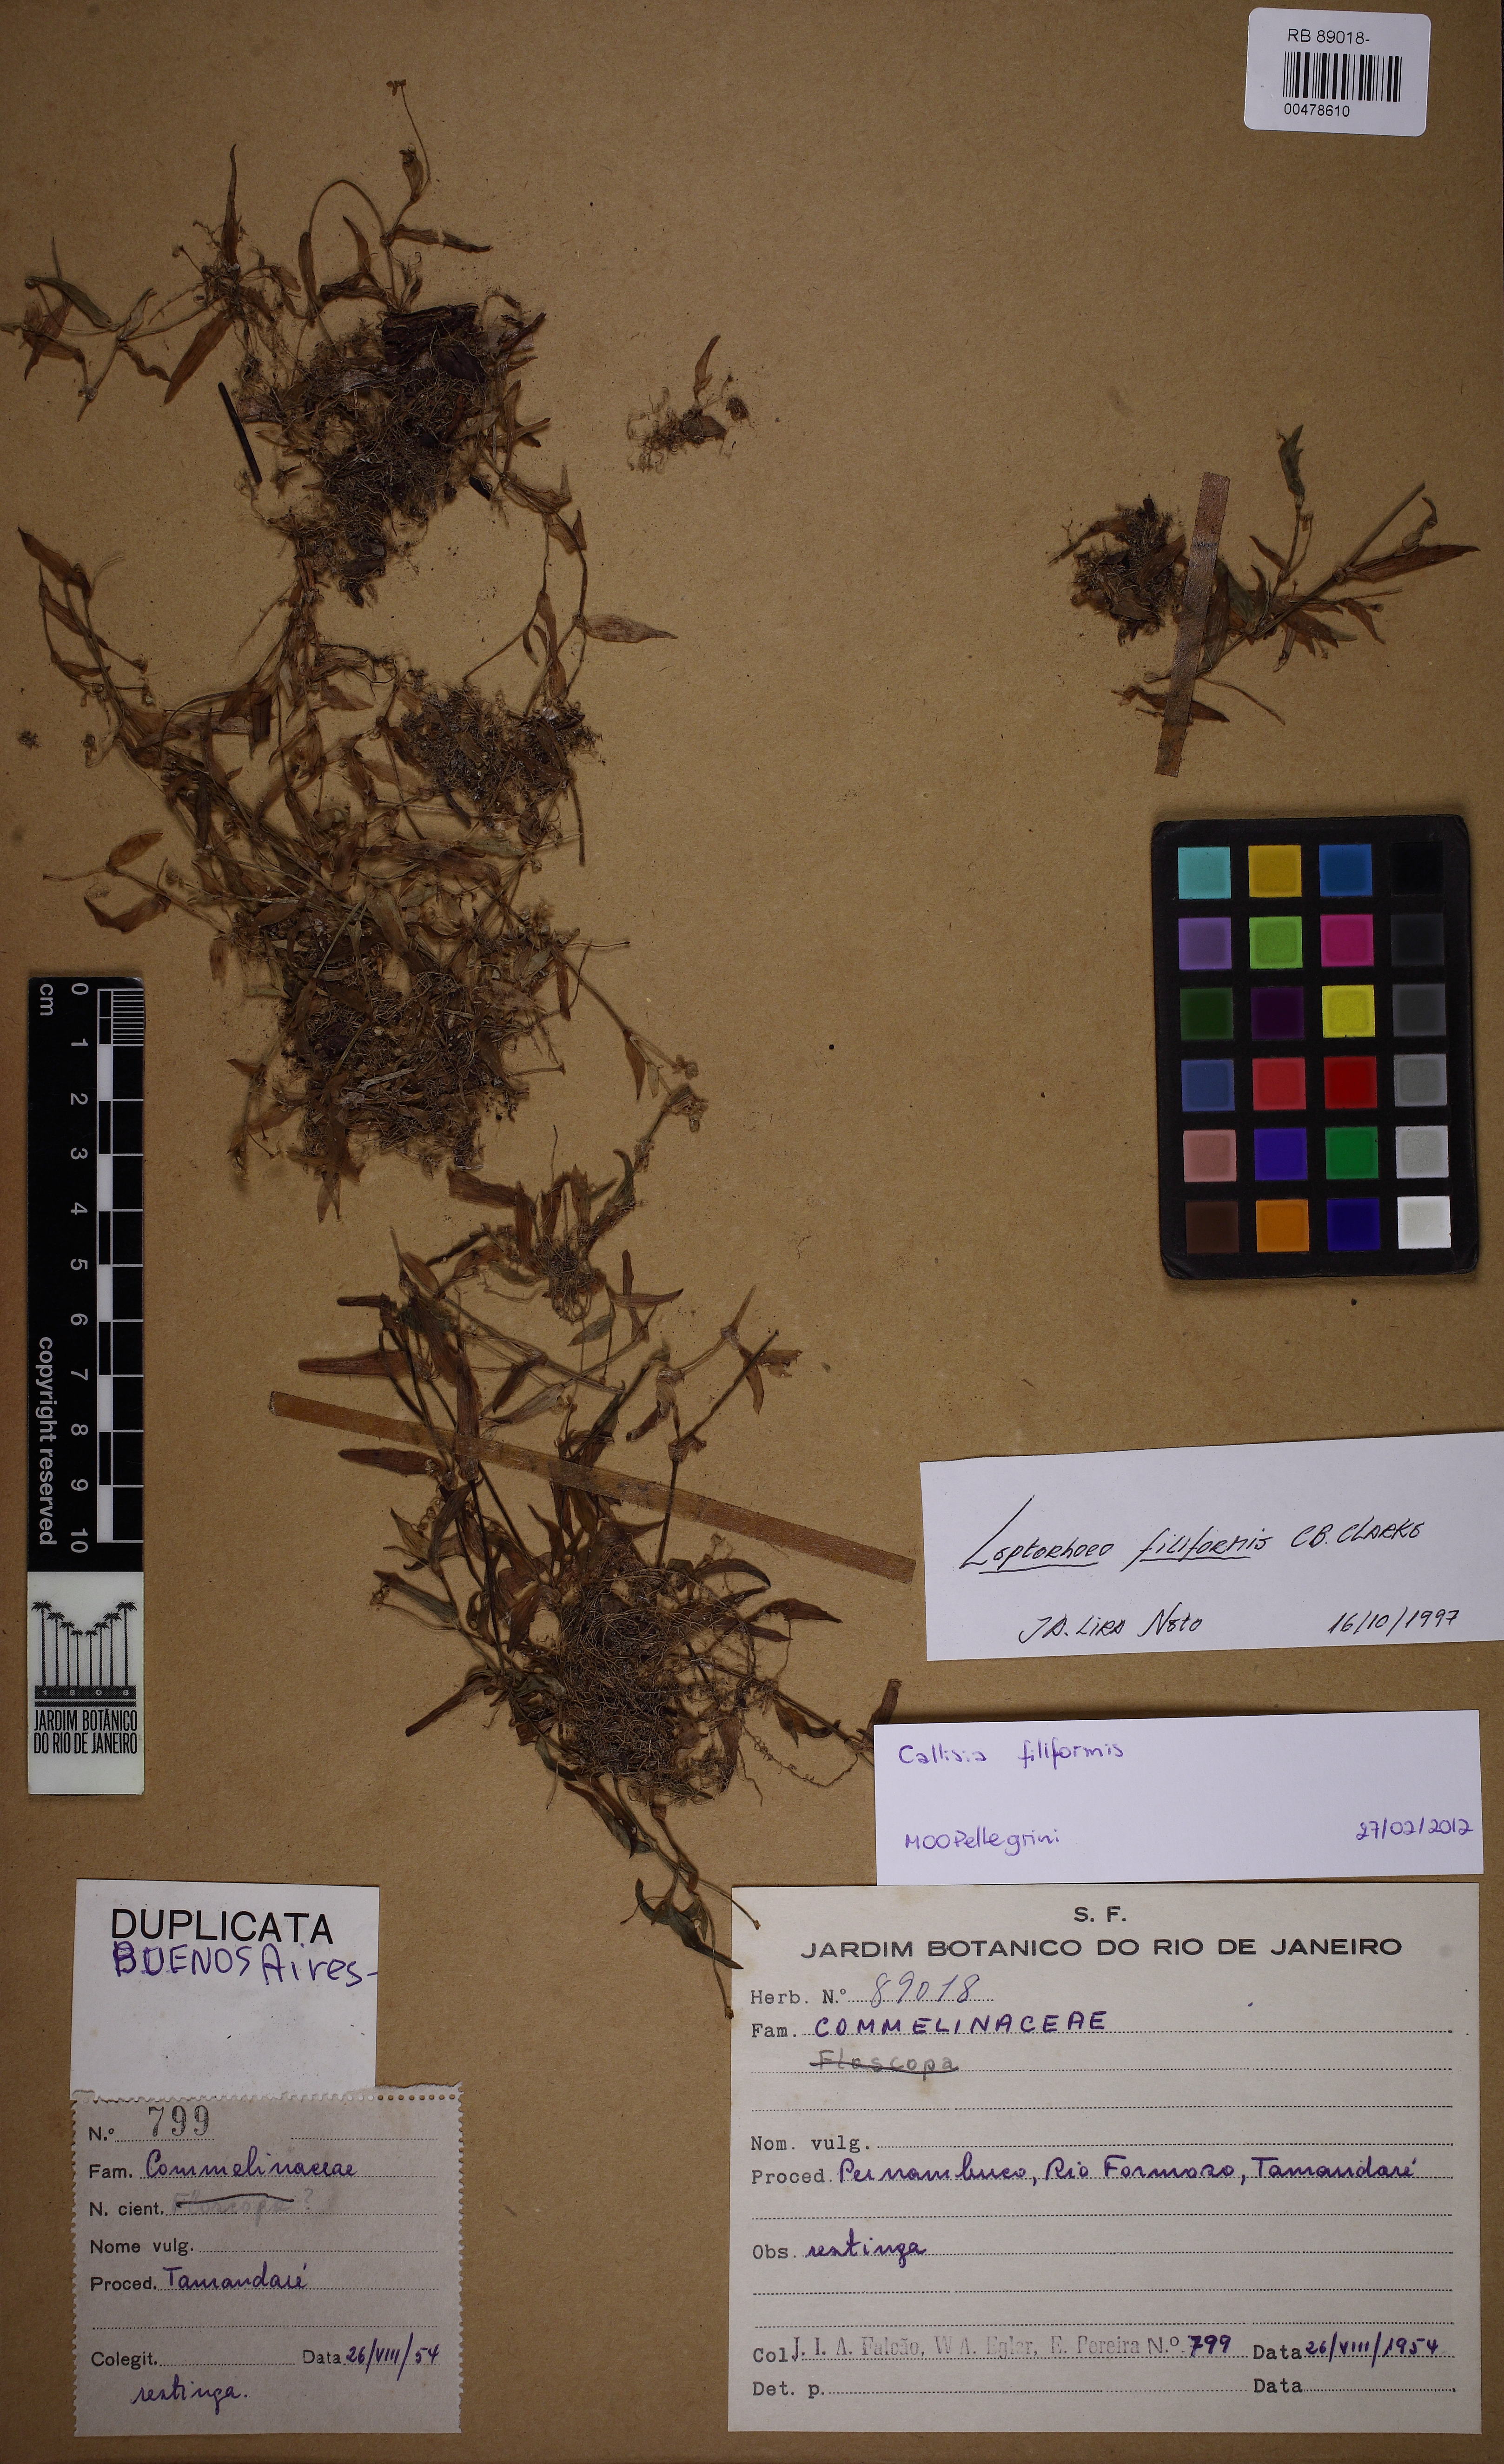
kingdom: Plantae
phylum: Tracheophyta
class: Liliopsida
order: Commelinales
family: Commelinaceae
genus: Callisia
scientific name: Callisia filiformis
